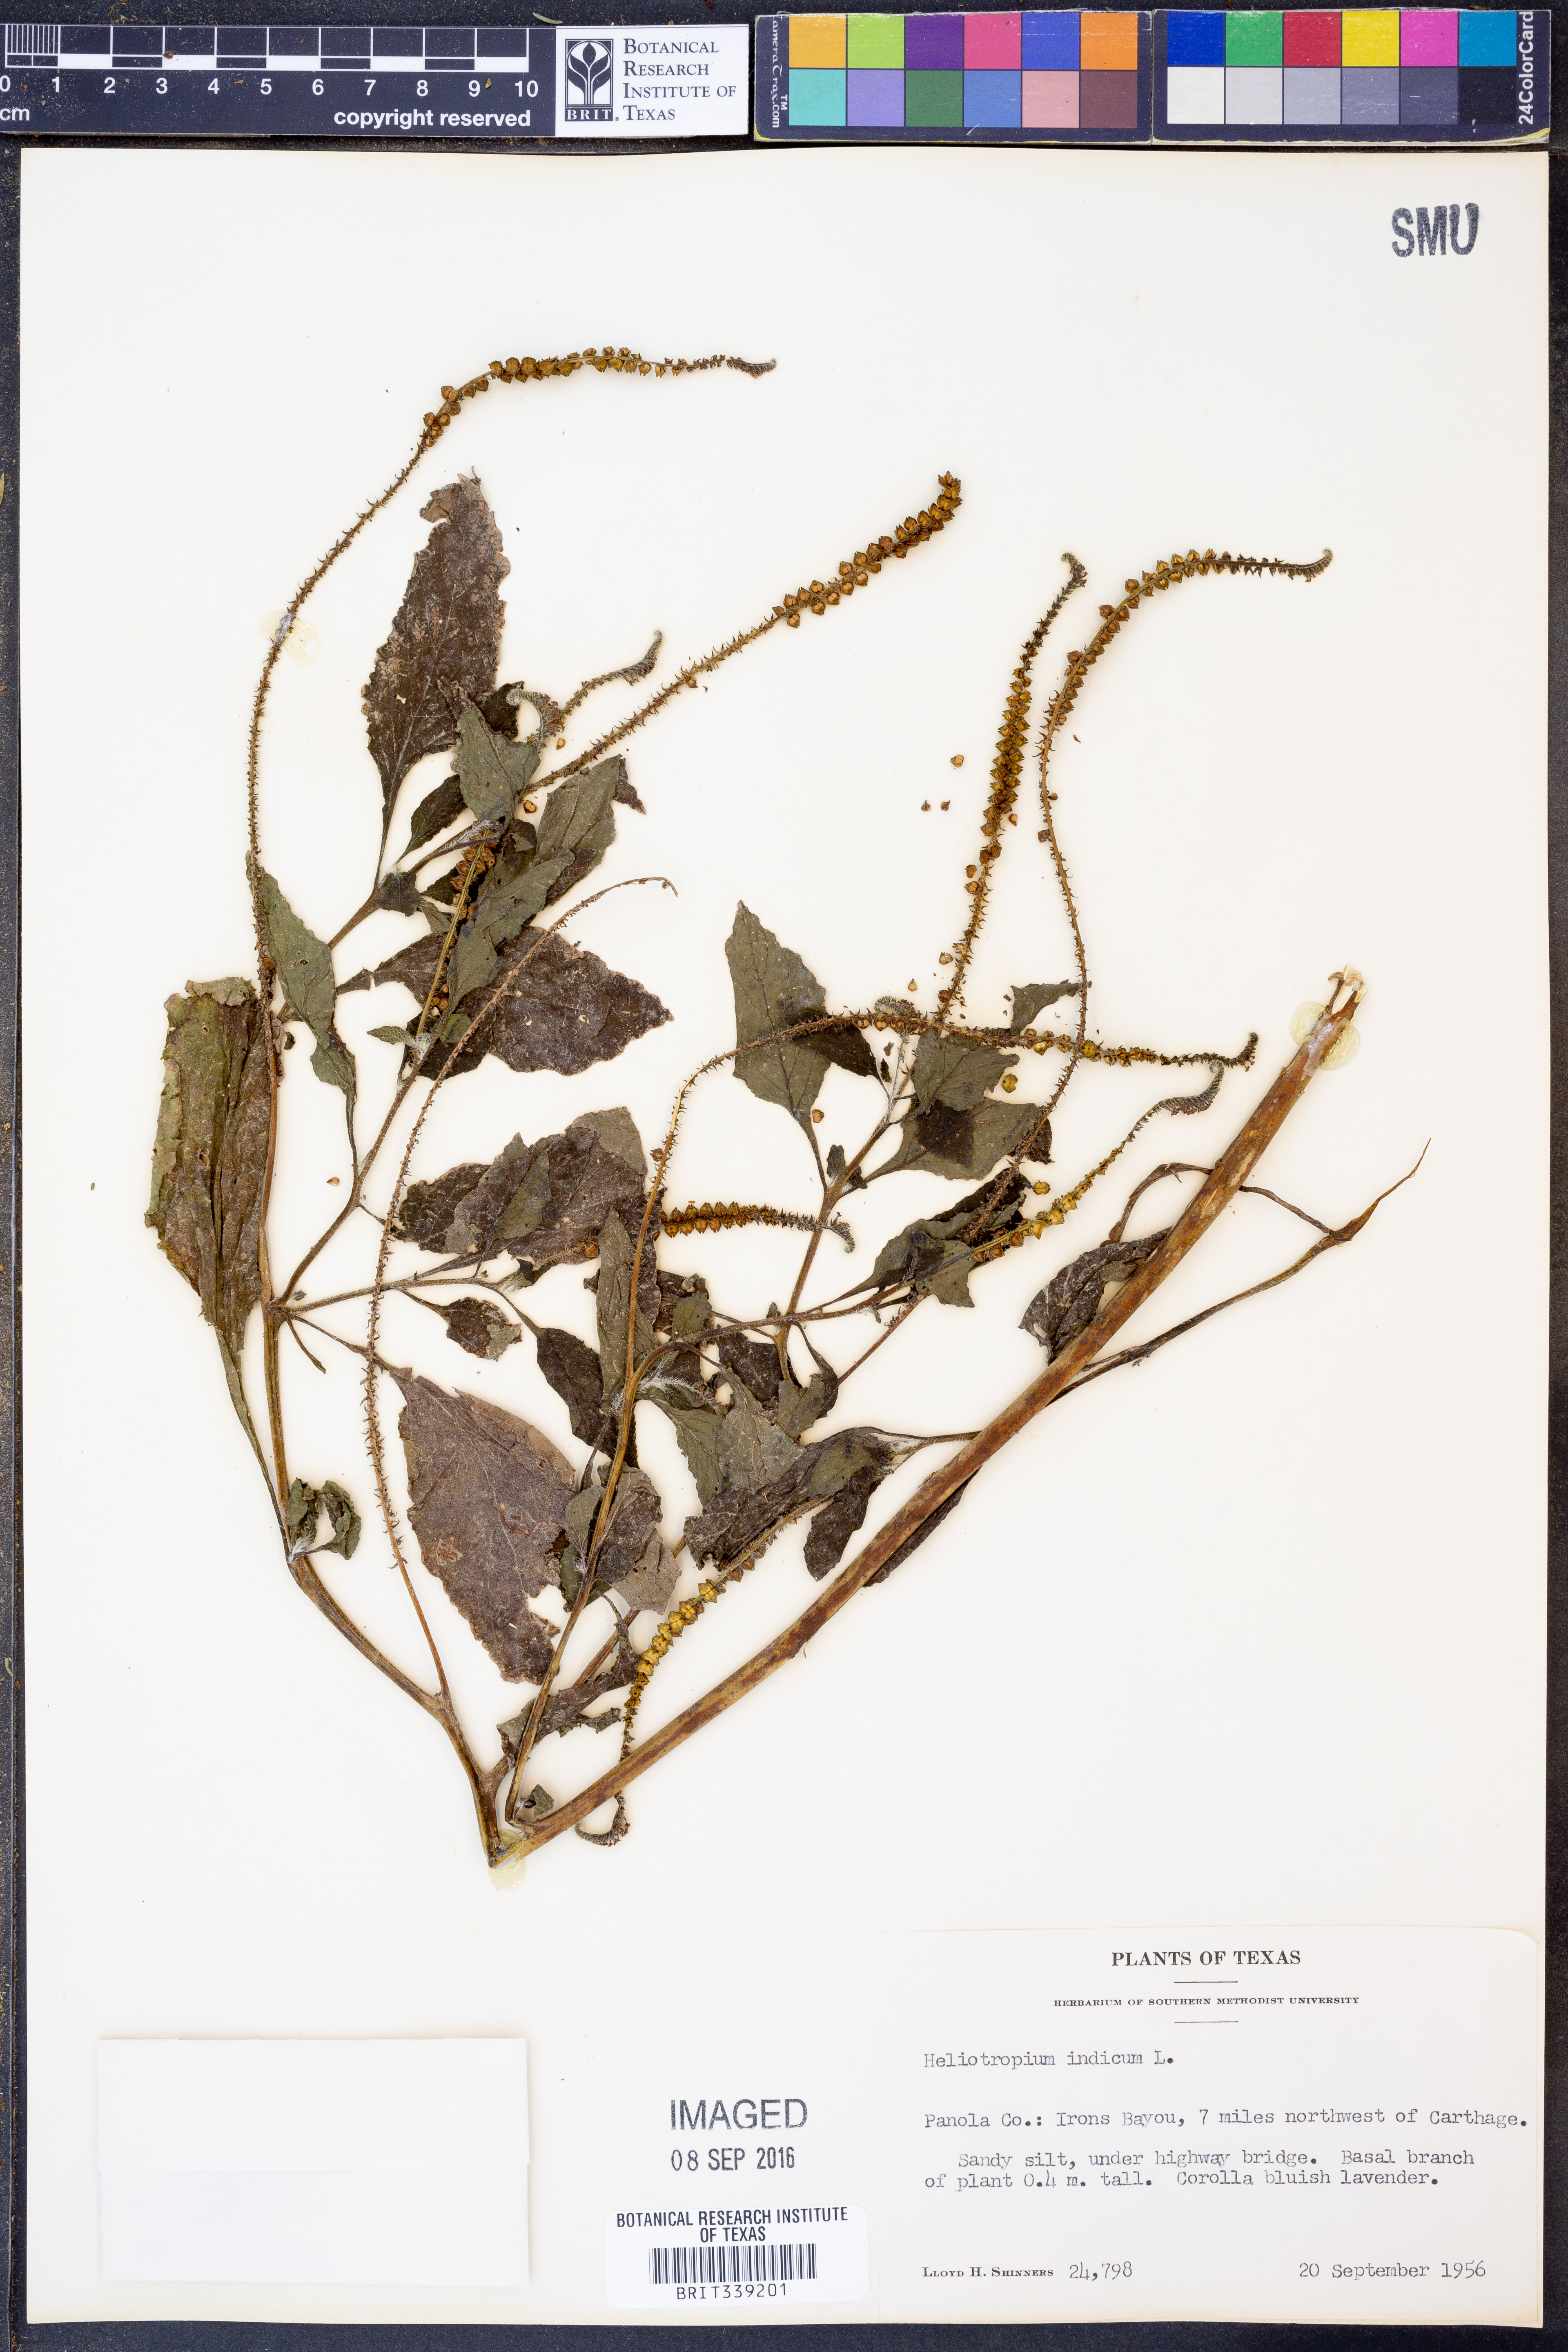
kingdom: Plantae
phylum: Tracheophyta
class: Magnoliopsida
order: Boraginales
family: Heliotropiaceae
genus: Heliotropium
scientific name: Heliotropium indicum
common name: Indian heliotrope
